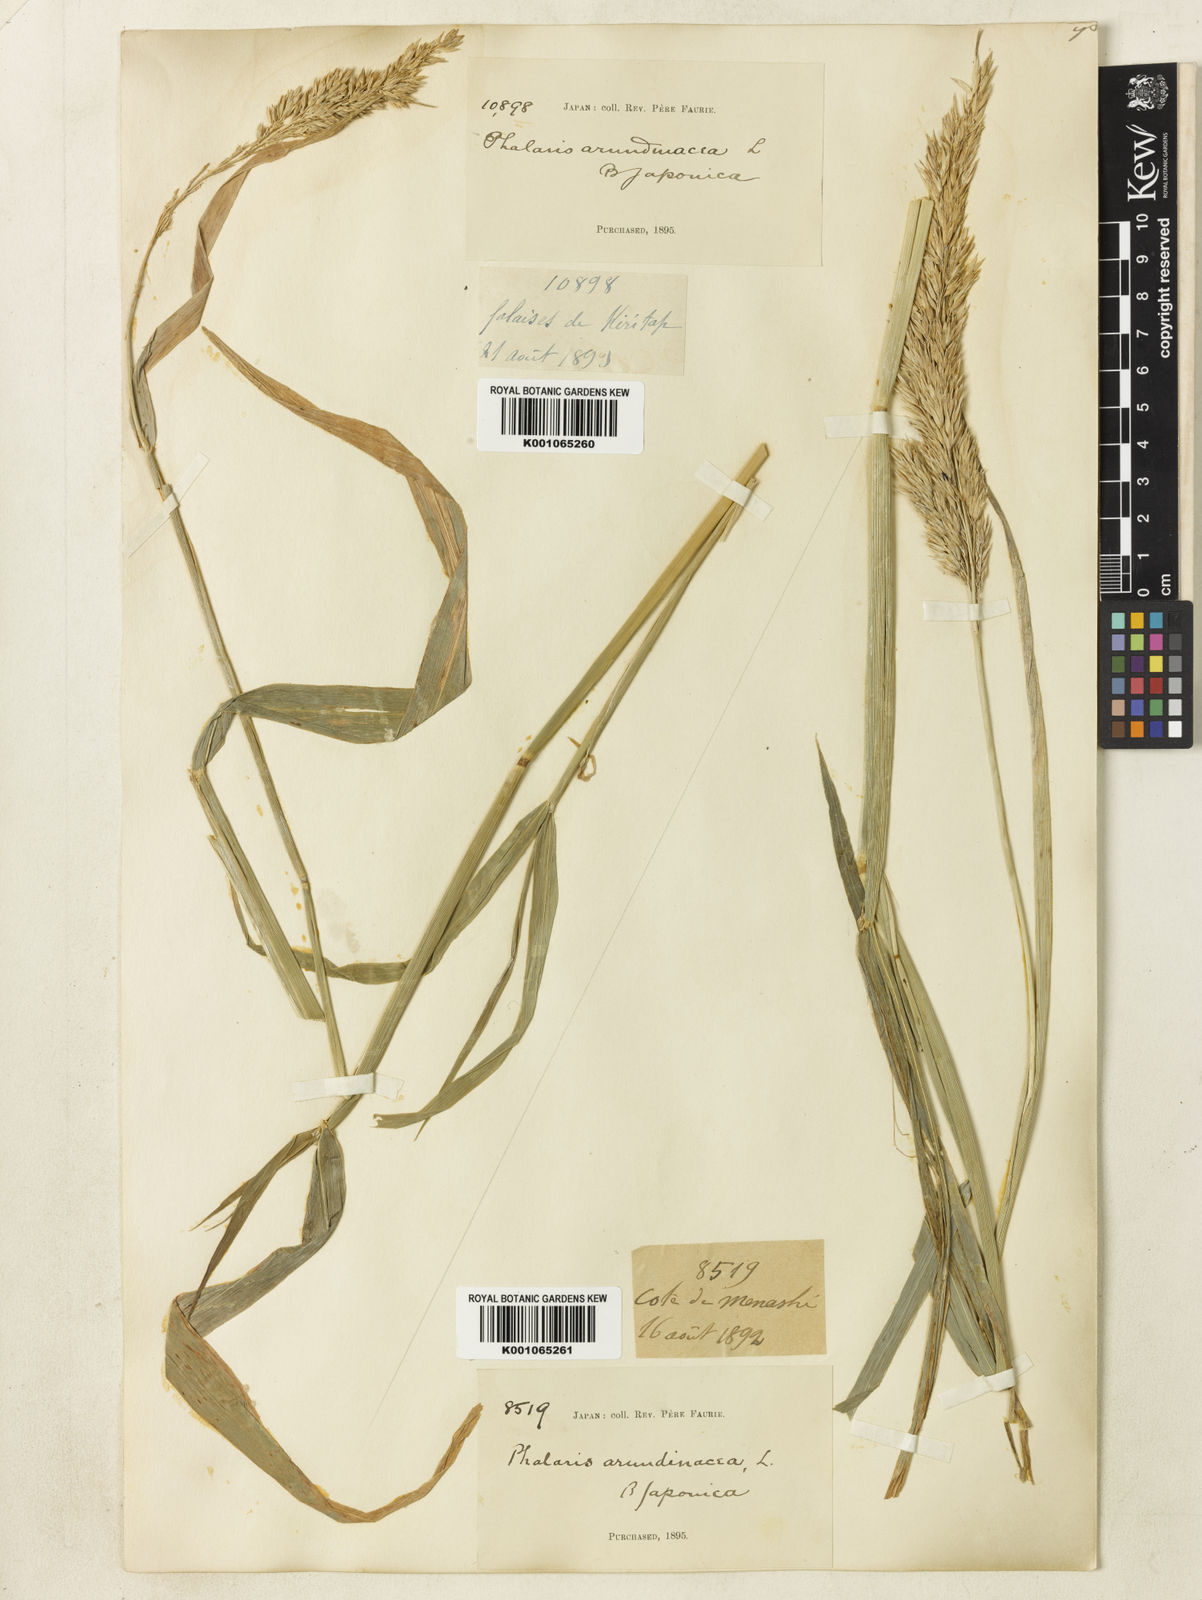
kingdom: Plantae
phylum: Tracheophyta
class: Liliopsida
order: Poales
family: Poaceae
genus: Phalaris
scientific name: Phalaris arundinacea
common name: Reed canary-grass
